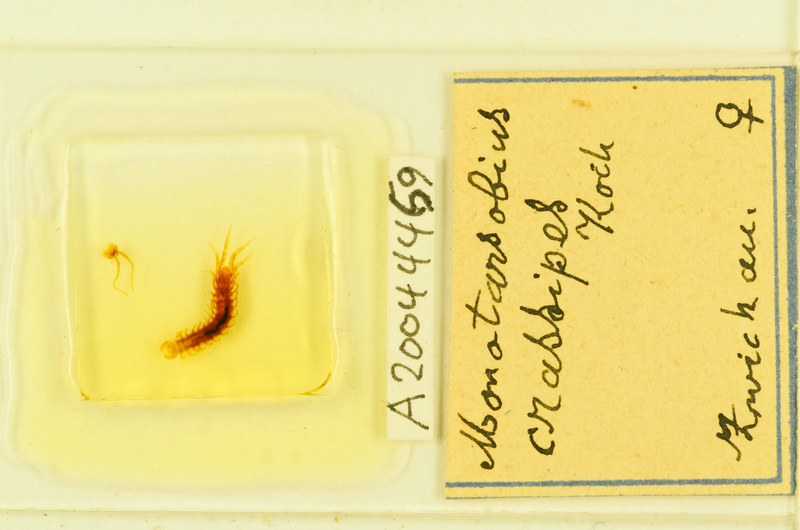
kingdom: Animalia
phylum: Arthropoda
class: Chilopoda
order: Lithobiomorpha
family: Lithobiidae
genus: Lithobius
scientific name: Lithobius crassipes
